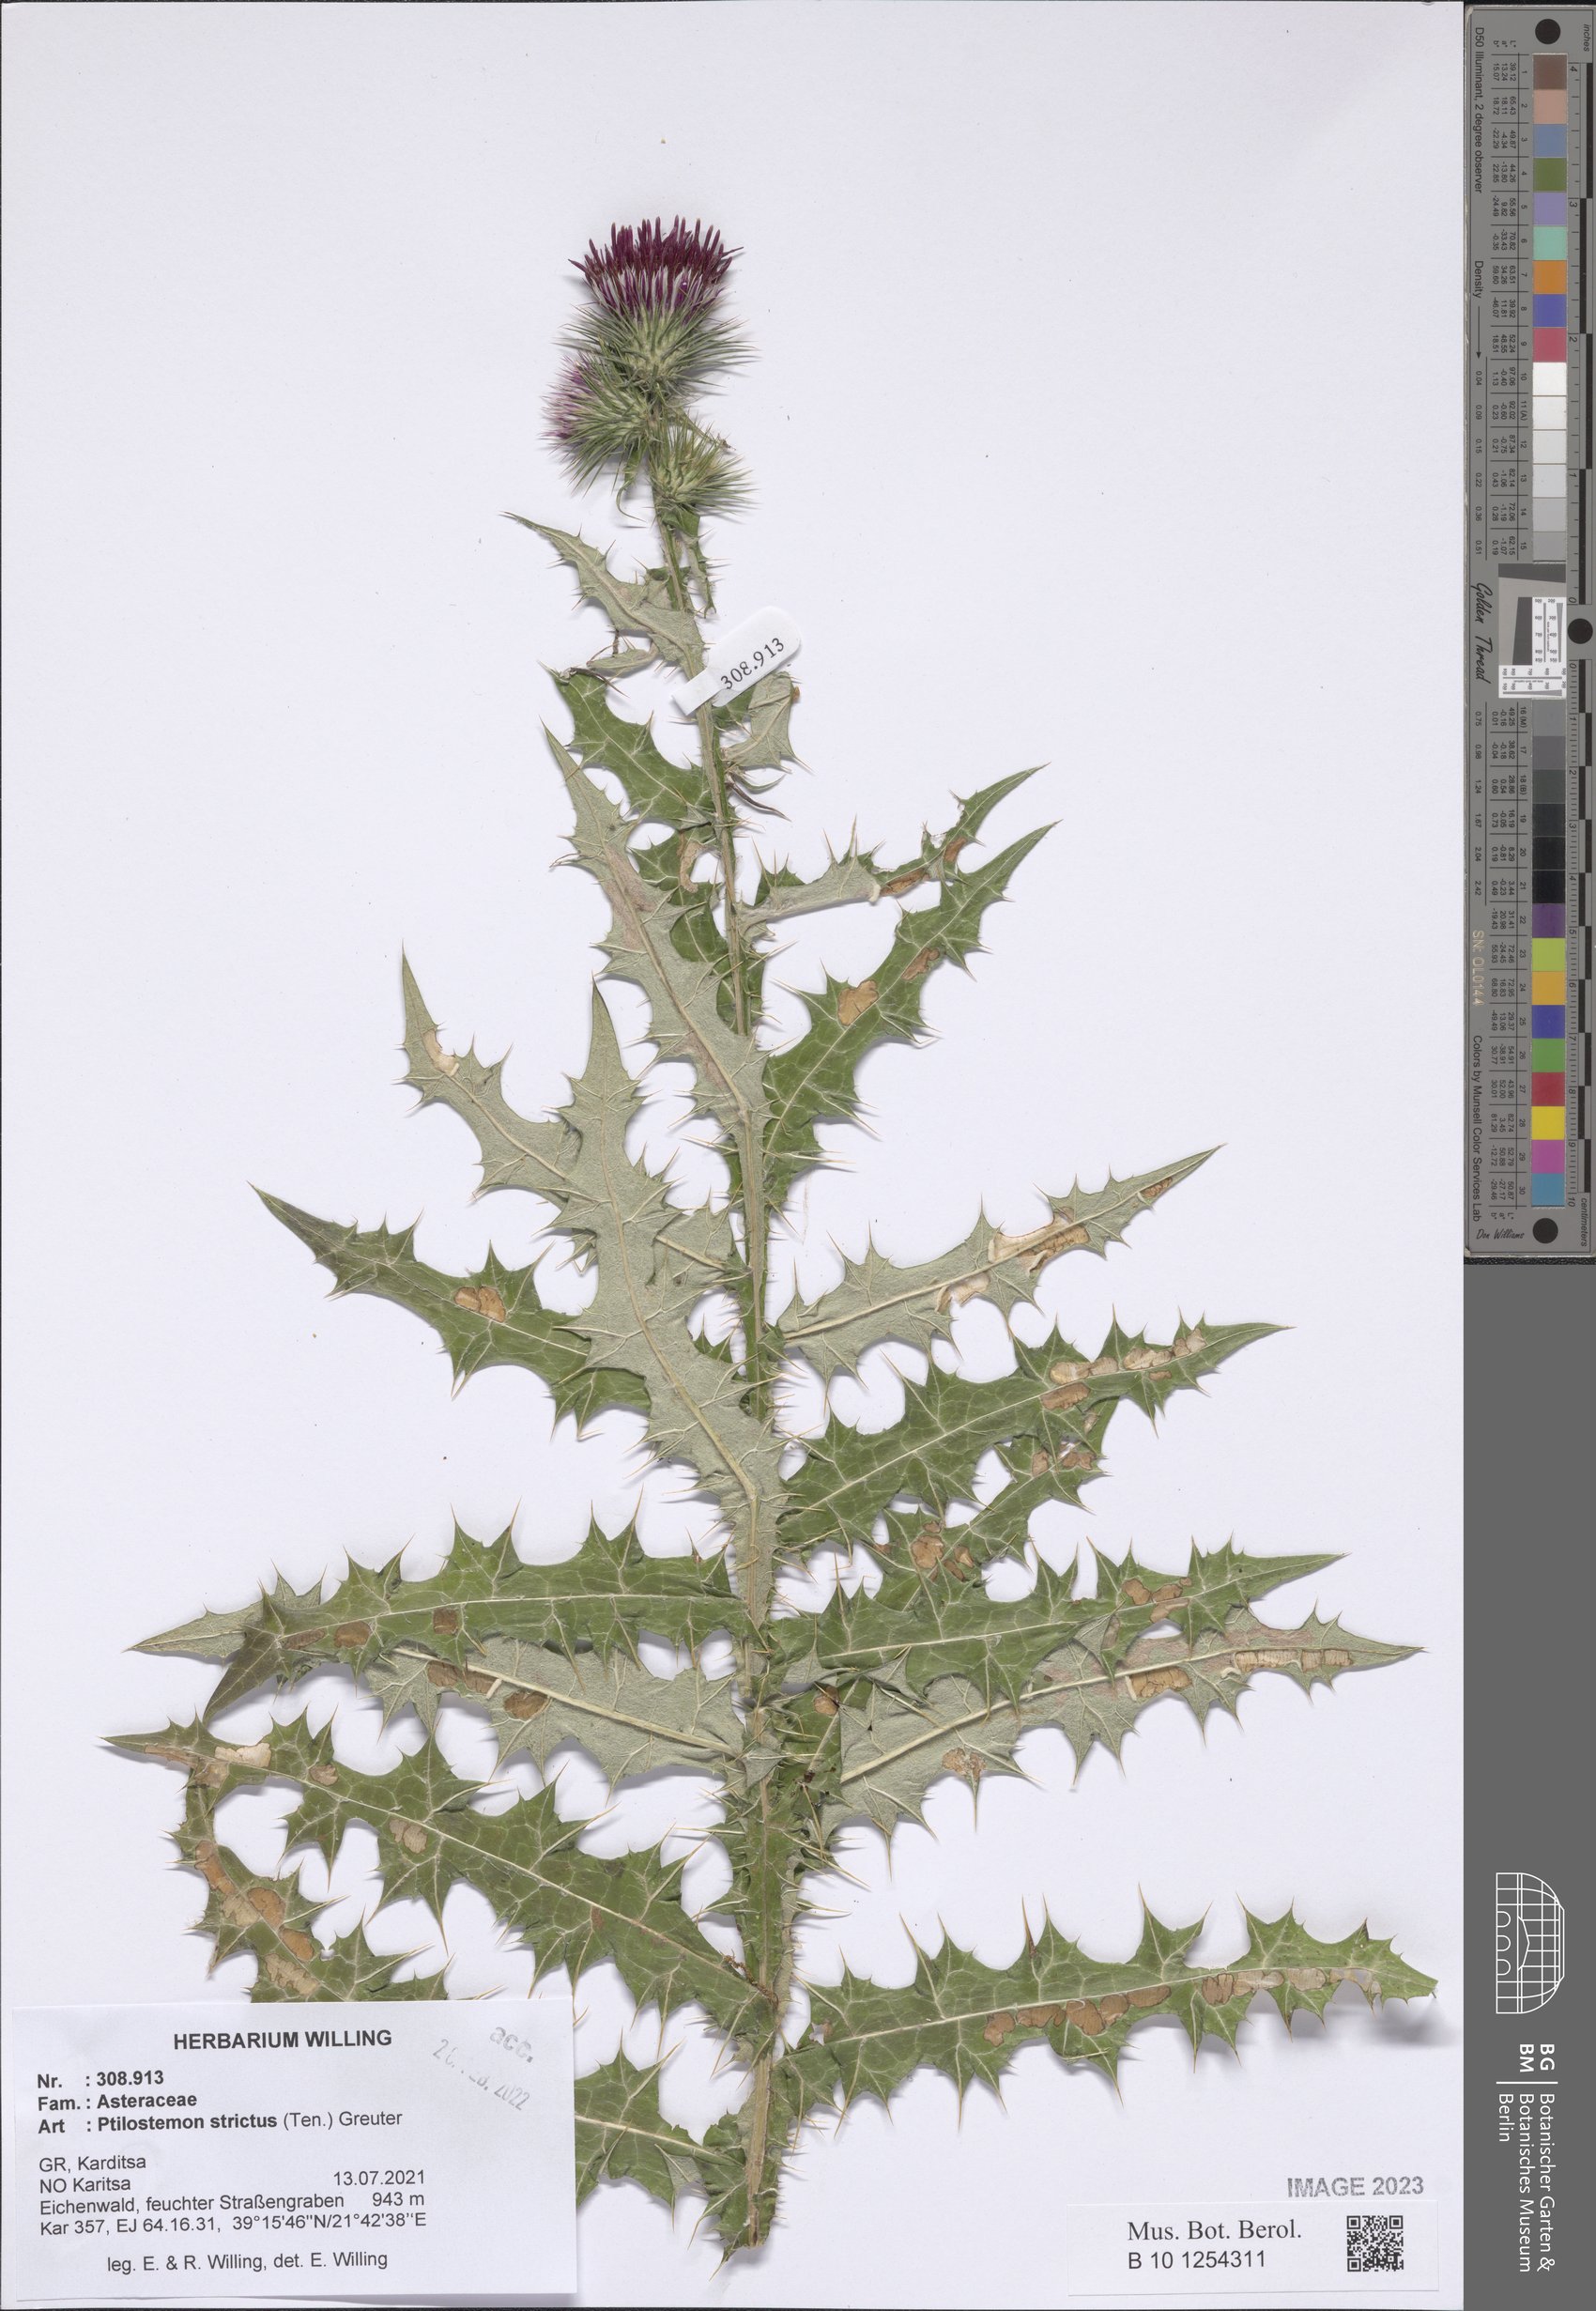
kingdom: Plantae
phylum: Tracheophyta
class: Magnoliopsida
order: Asterales
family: Asteraceae
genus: Ptilostemon
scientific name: Ptilostemon strictus
